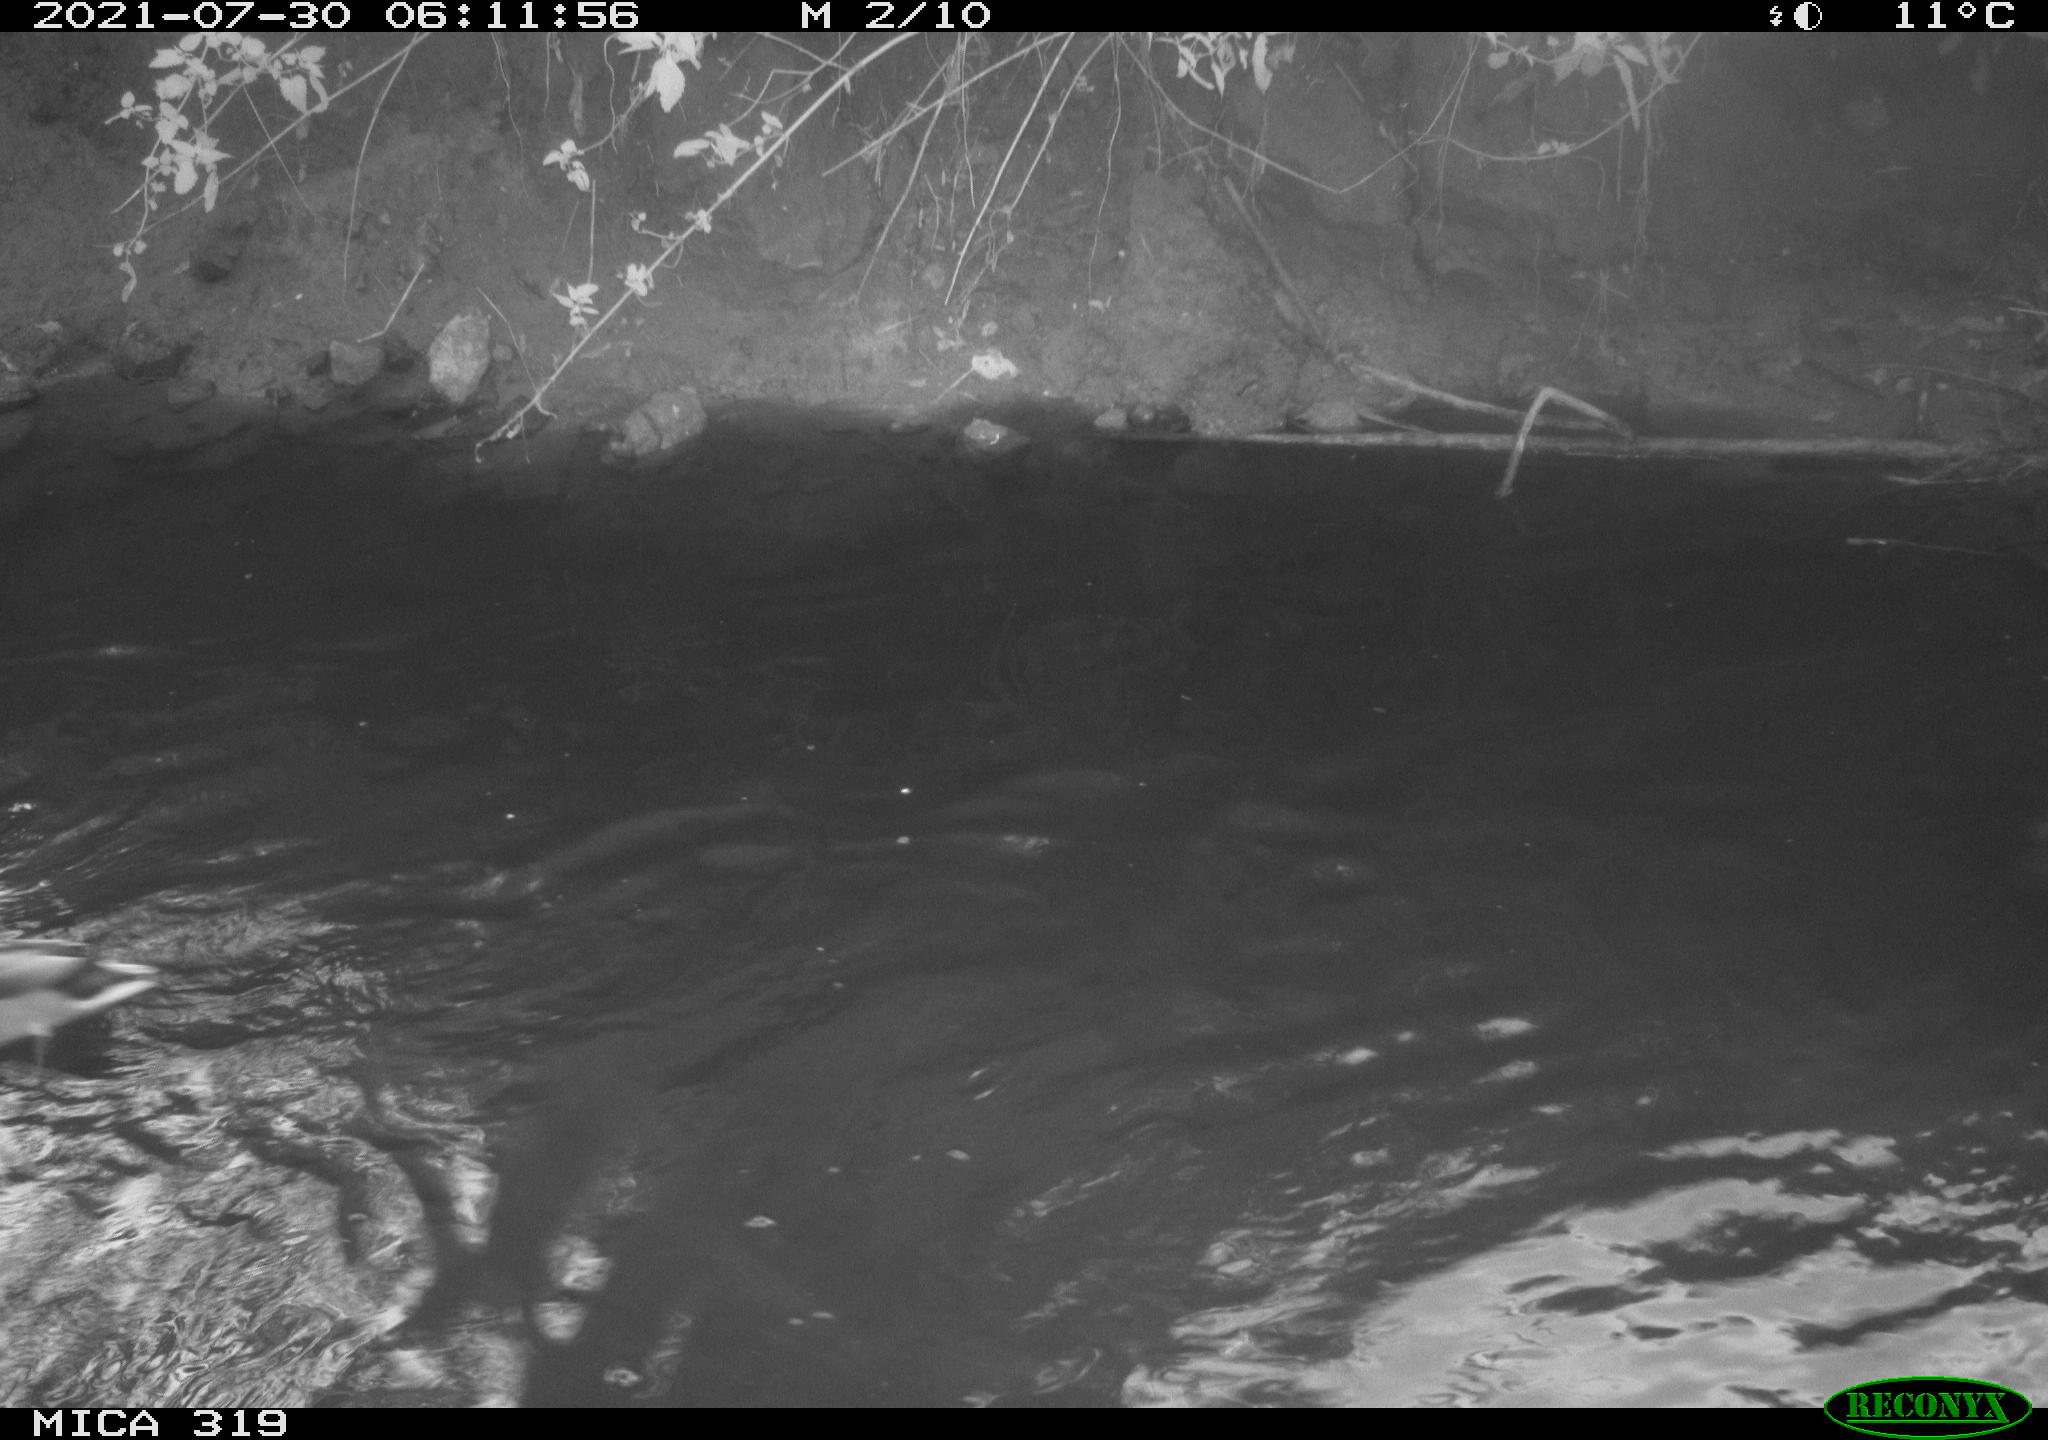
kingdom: Animalia
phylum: Chordata
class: Aves
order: Anseriformes
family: Anatidae
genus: Anas
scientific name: Anas platyrhynchos
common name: Mallard
